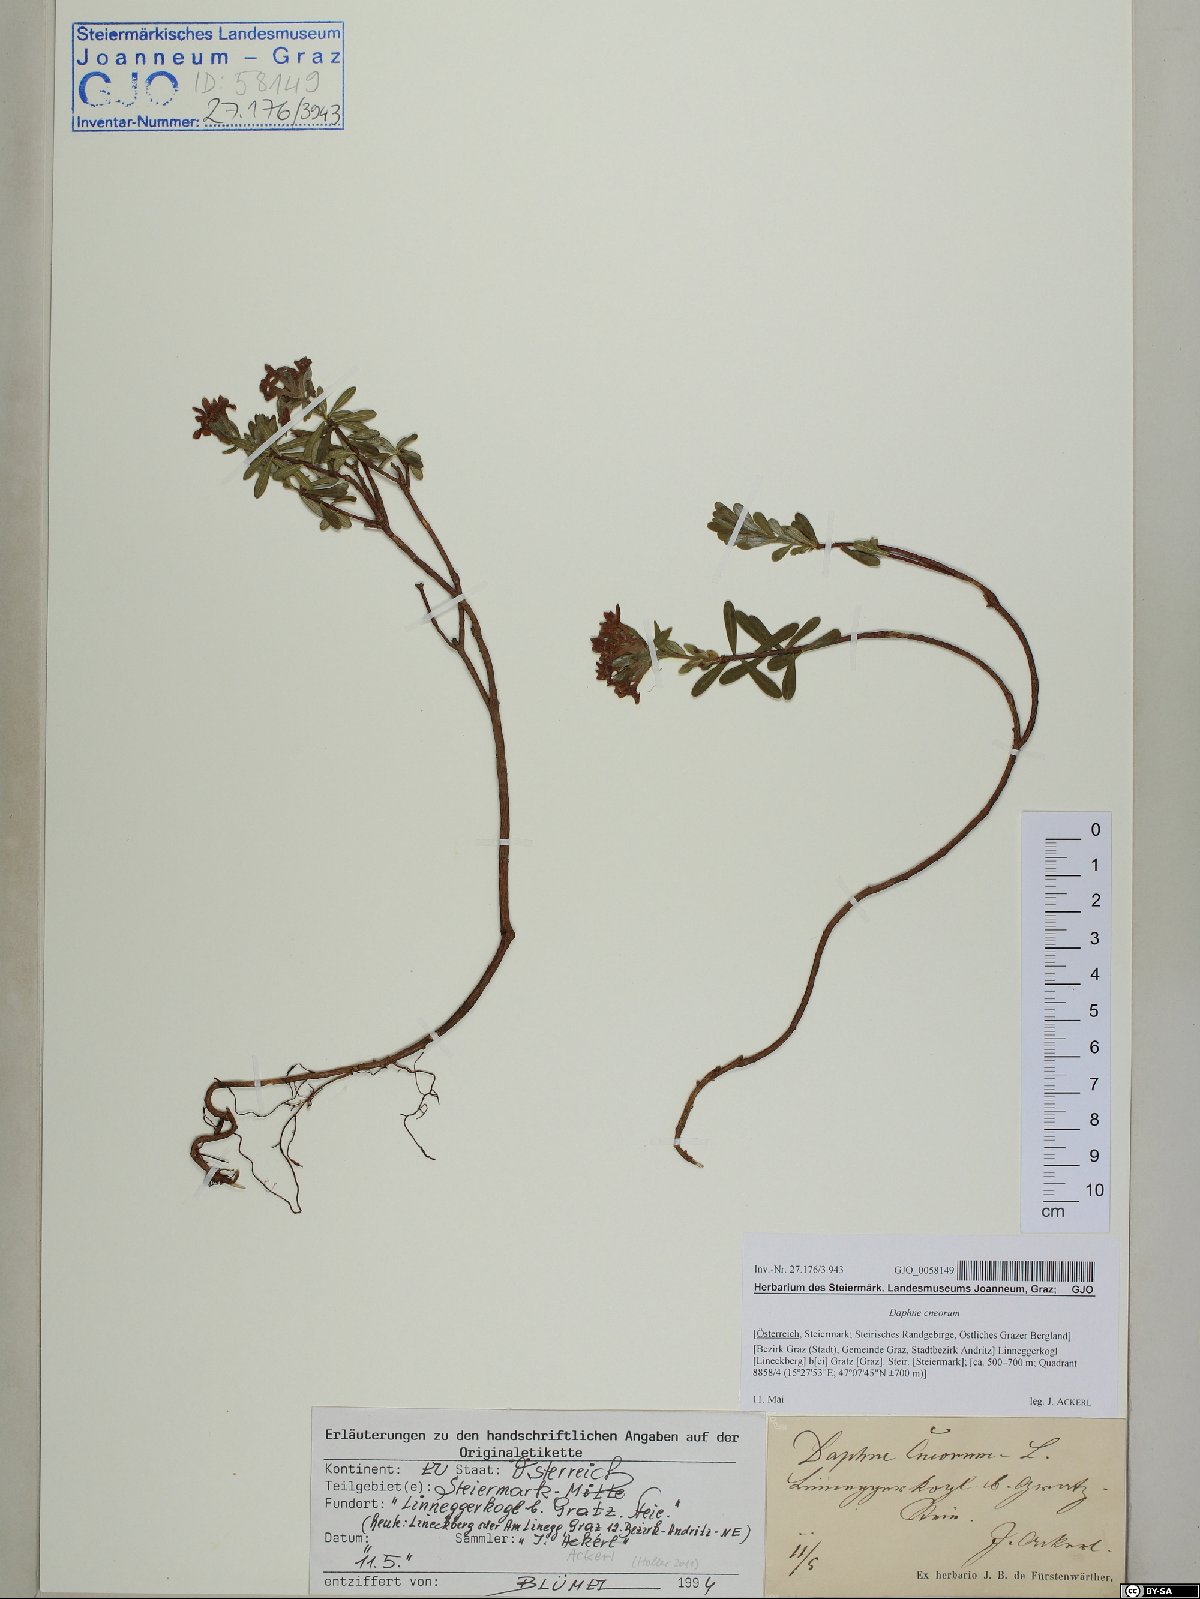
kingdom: Plantae
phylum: Tracheophyta
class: Magnoliopsida
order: Malvales
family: Thymelaeaceae
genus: Daphne
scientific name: Daphne cneorum
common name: Garland-flower
